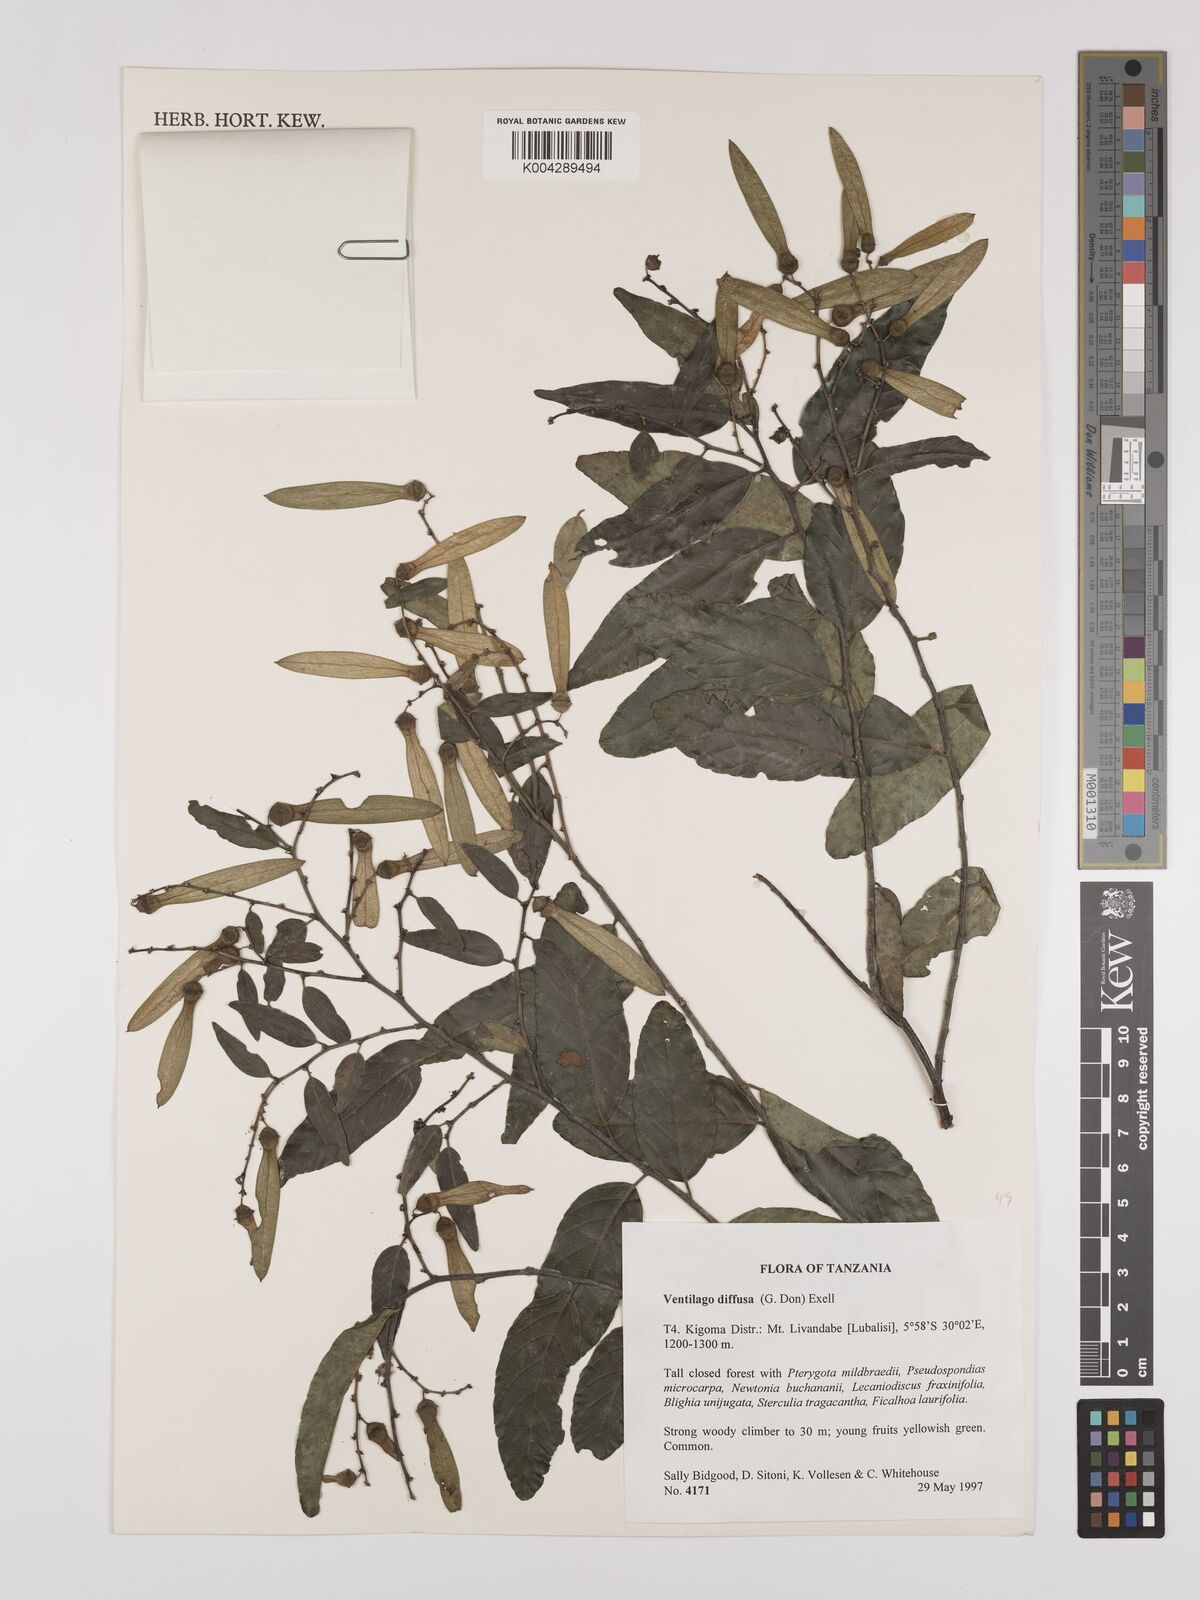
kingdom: Plantae
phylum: Tracheophyta
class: Magnoliopsida
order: Rosales
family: Rhamnaceae
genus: Ventilago
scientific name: Ventilago diffusa
